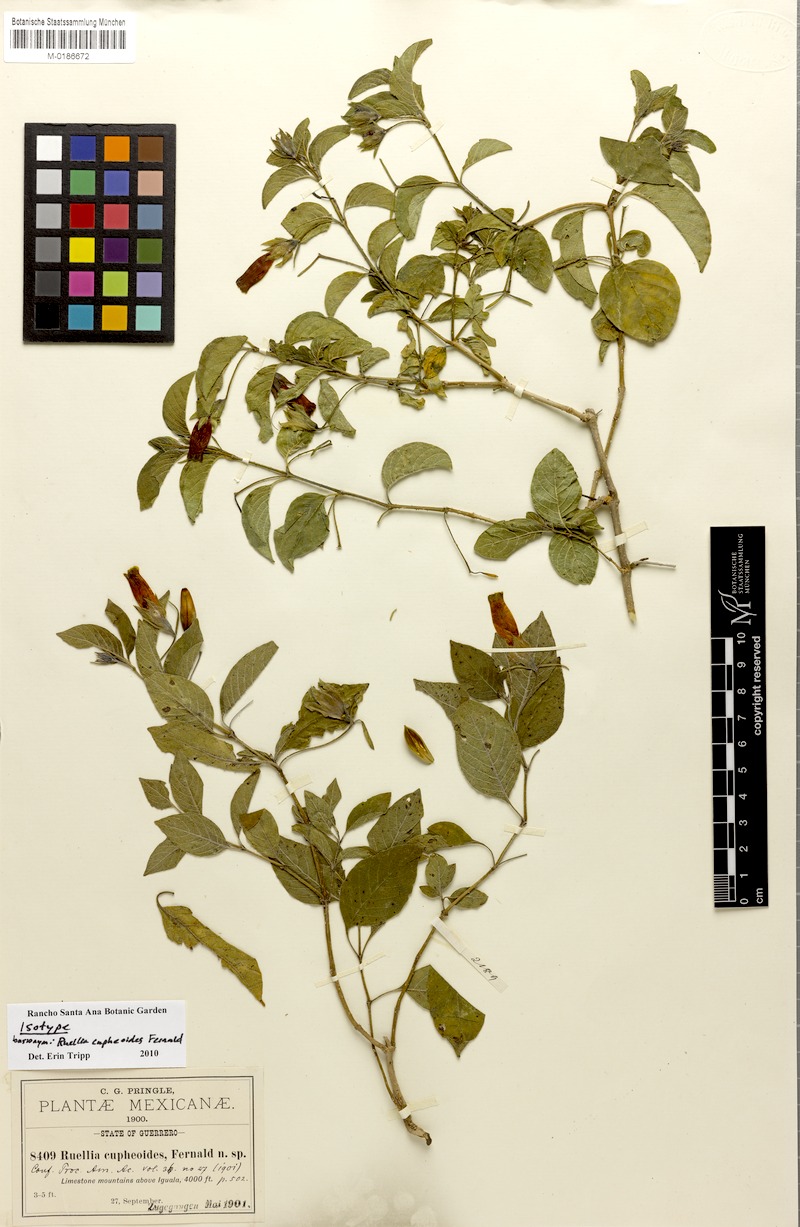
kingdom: Plantae
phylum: Tracheophyta
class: Magnoliopsida
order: Lamiales
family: Acanthaceae
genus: Ruellia
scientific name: Ruellia fruticosa
